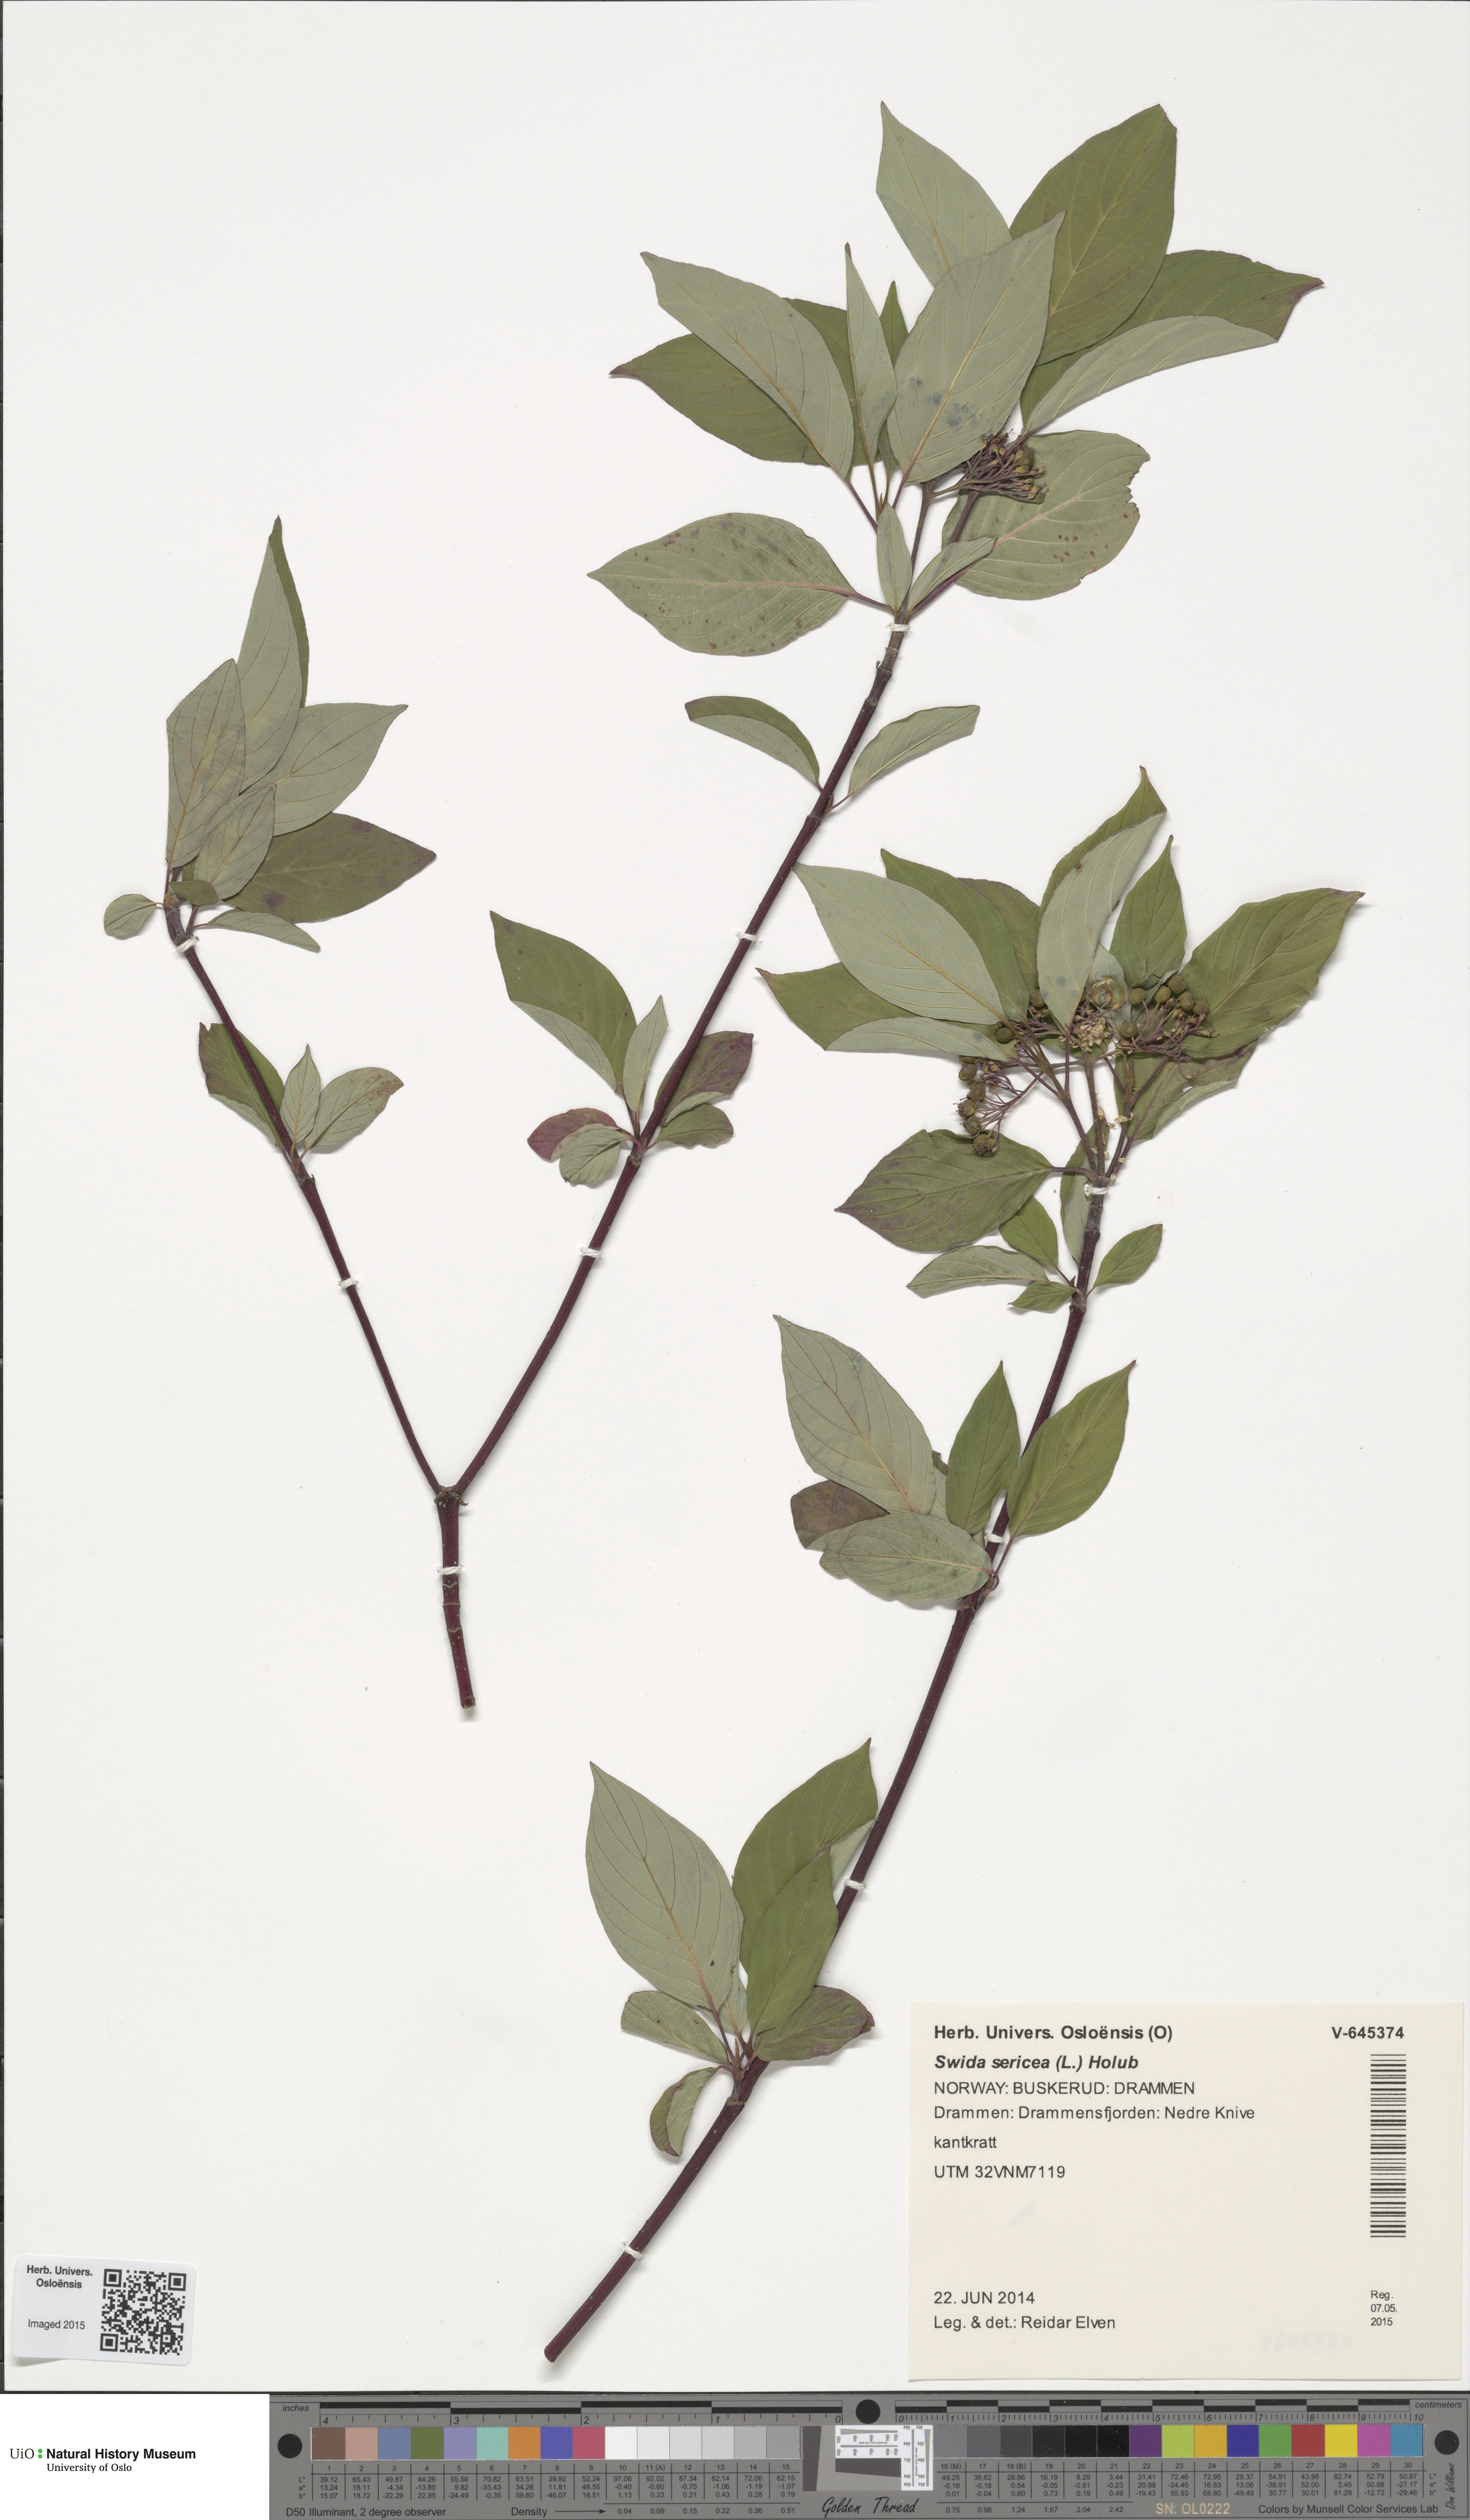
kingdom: Plantae
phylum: Tracheophyta
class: Magnoliopsida
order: Cornales
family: Cornaceae
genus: Cornus
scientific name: Cornus sericea
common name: Red-osier dogwood
